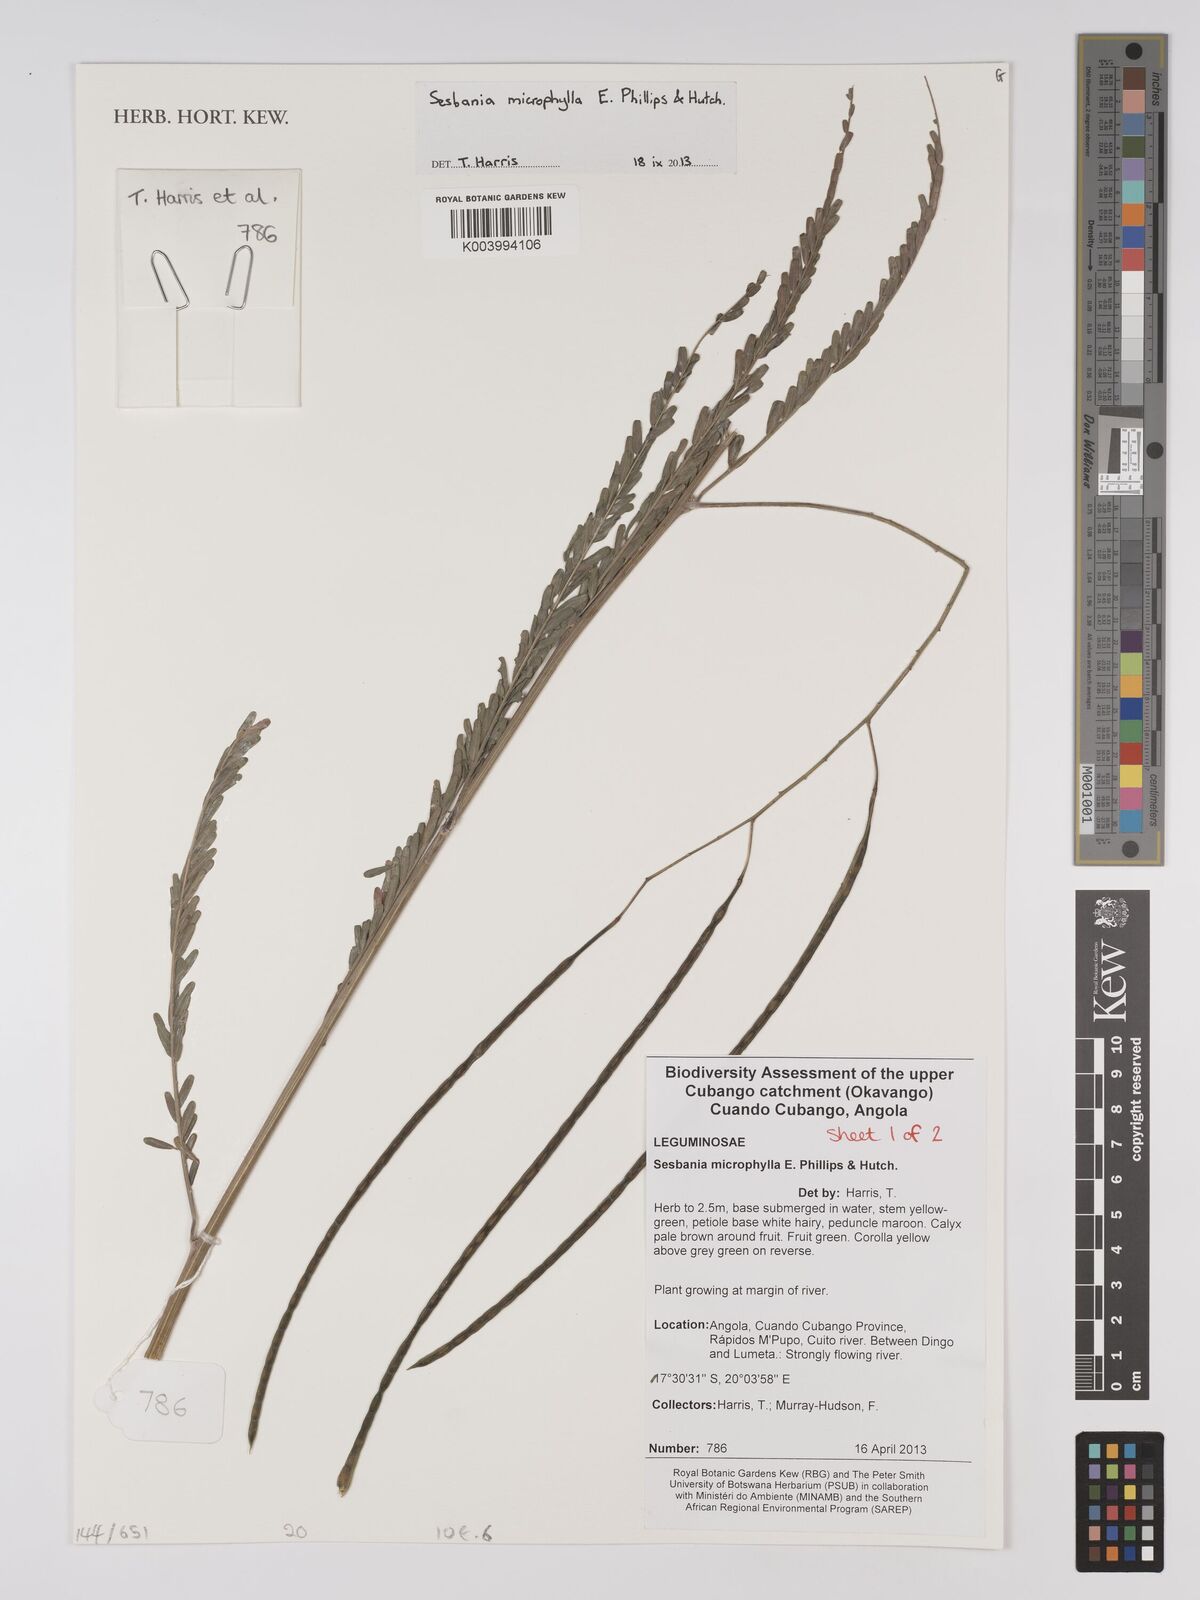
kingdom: Plantae
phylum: Tracheophyta
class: Magnoliopsida
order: Fabales
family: Fabaceae
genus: Sesbania
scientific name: Sesbania microphylla
